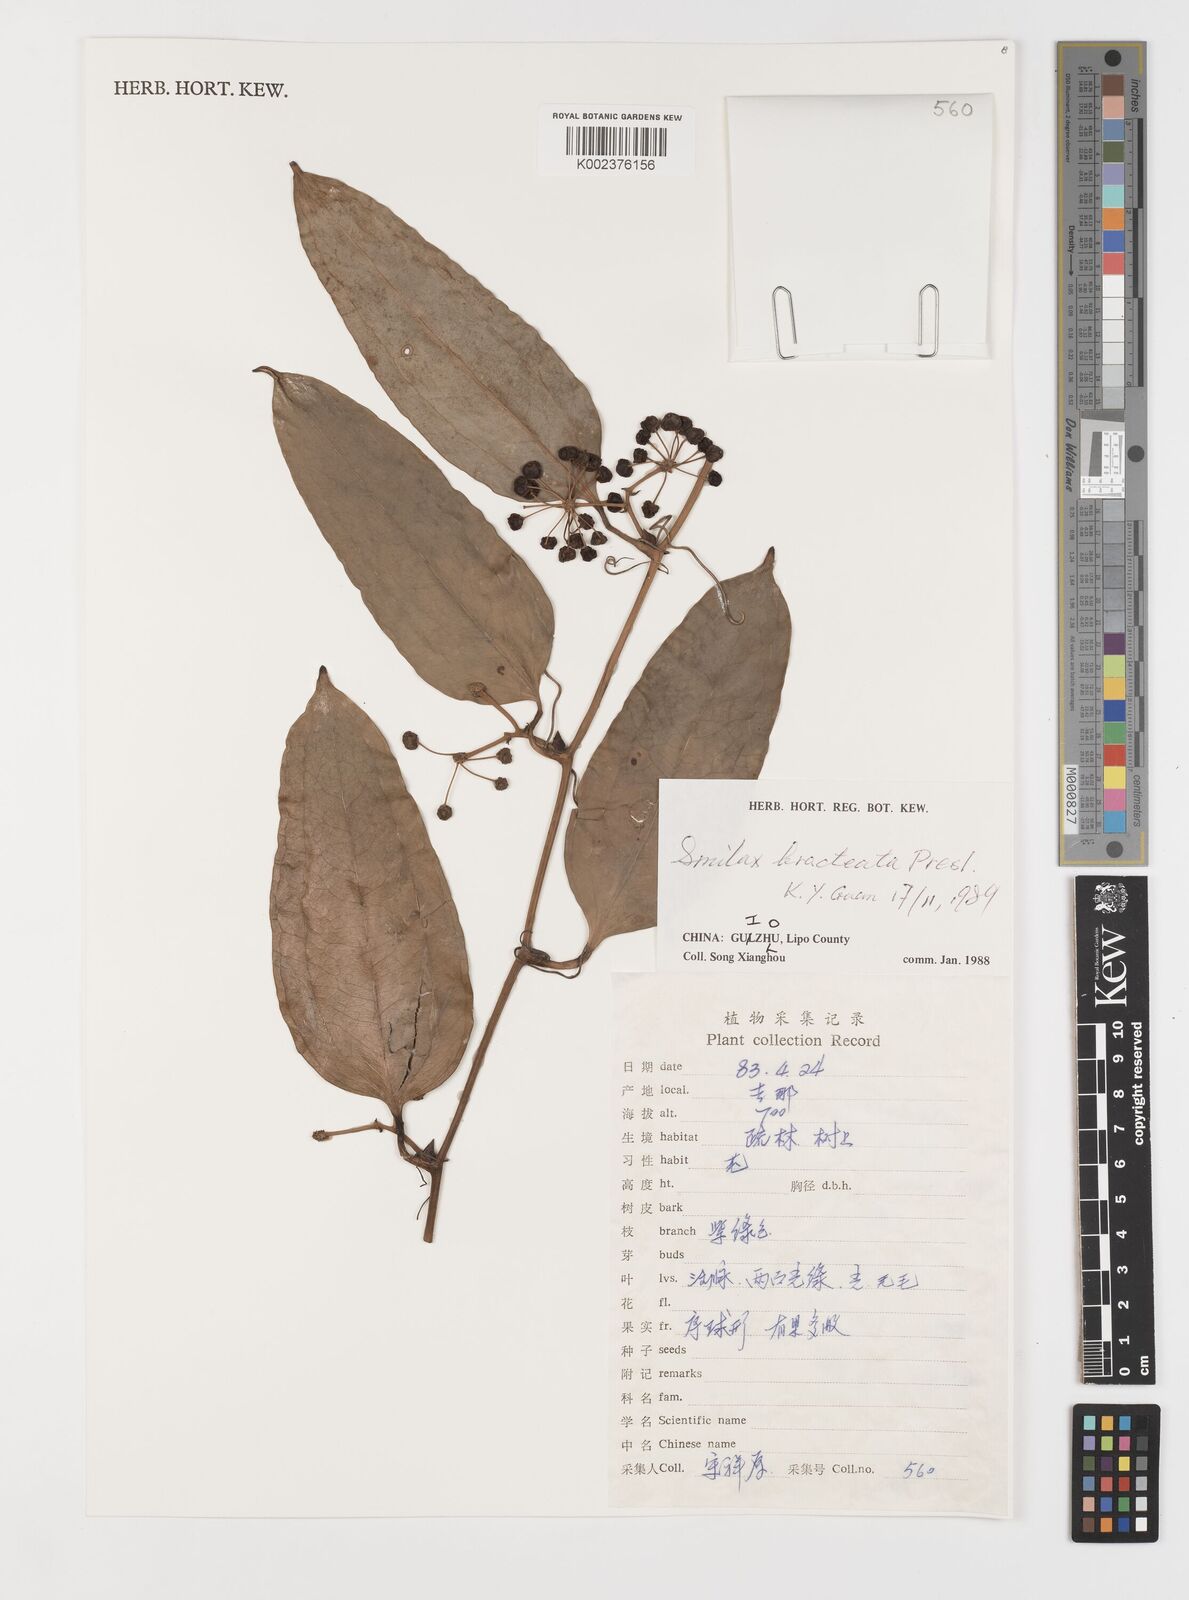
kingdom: Plantae
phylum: Tracheophyta
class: Liliopsida
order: Liliales
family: Smilacaceae
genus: Smilax
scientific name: Smilax bracteata
